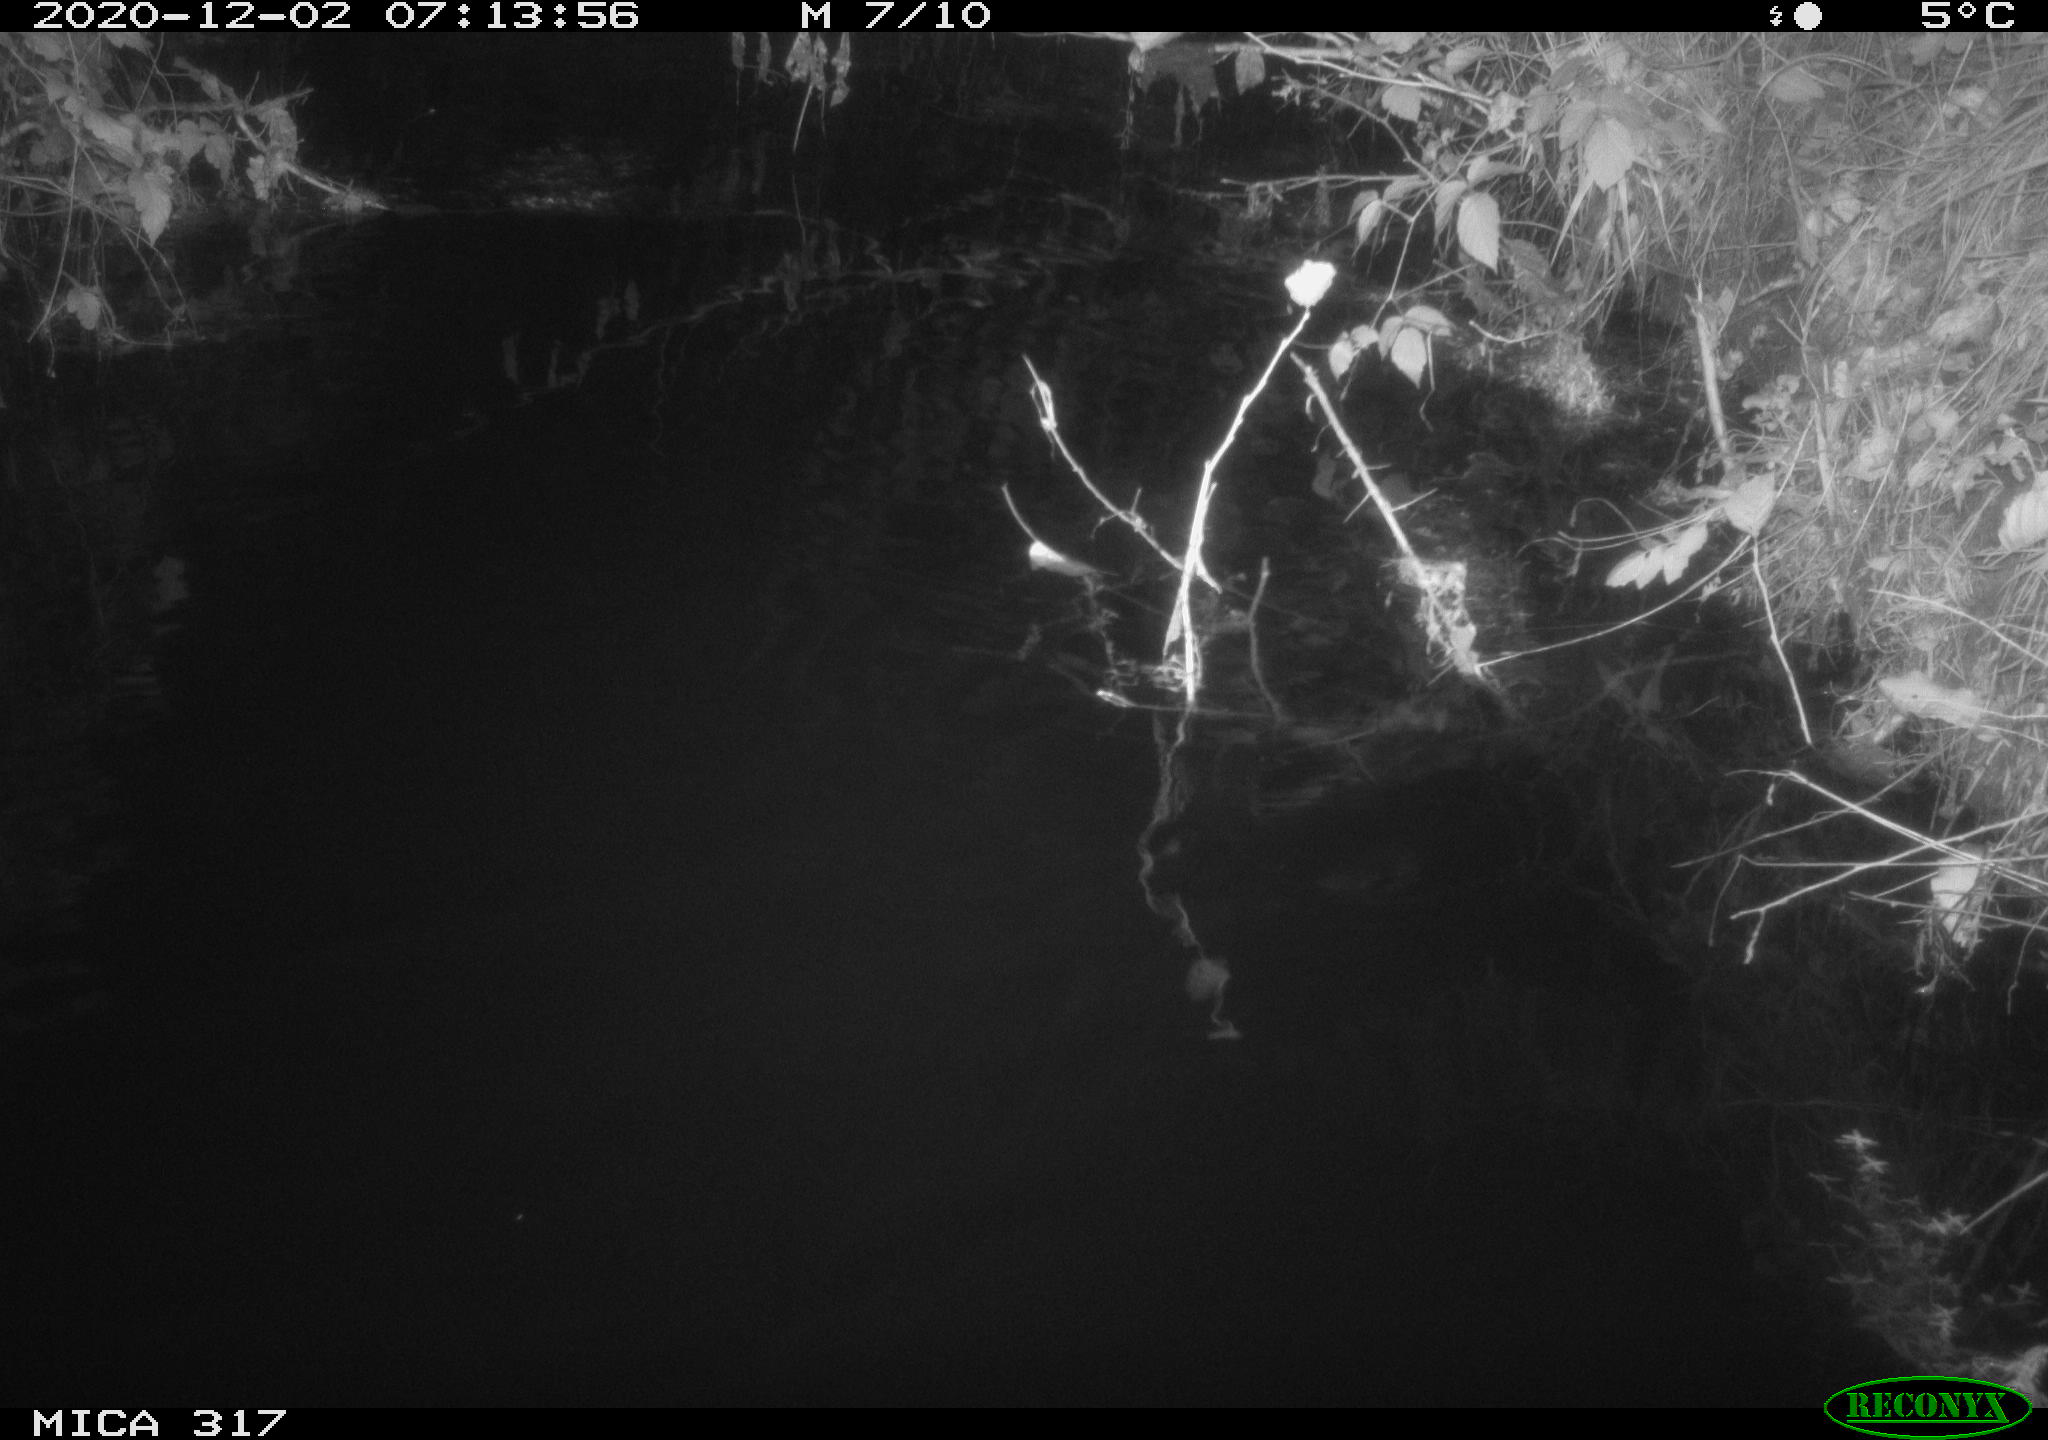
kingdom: Animalia
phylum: Chordata
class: Mammalia
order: Rodentia
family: Muridae
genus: Rattus
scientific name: Rattus norvegicus
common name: Brown rat
